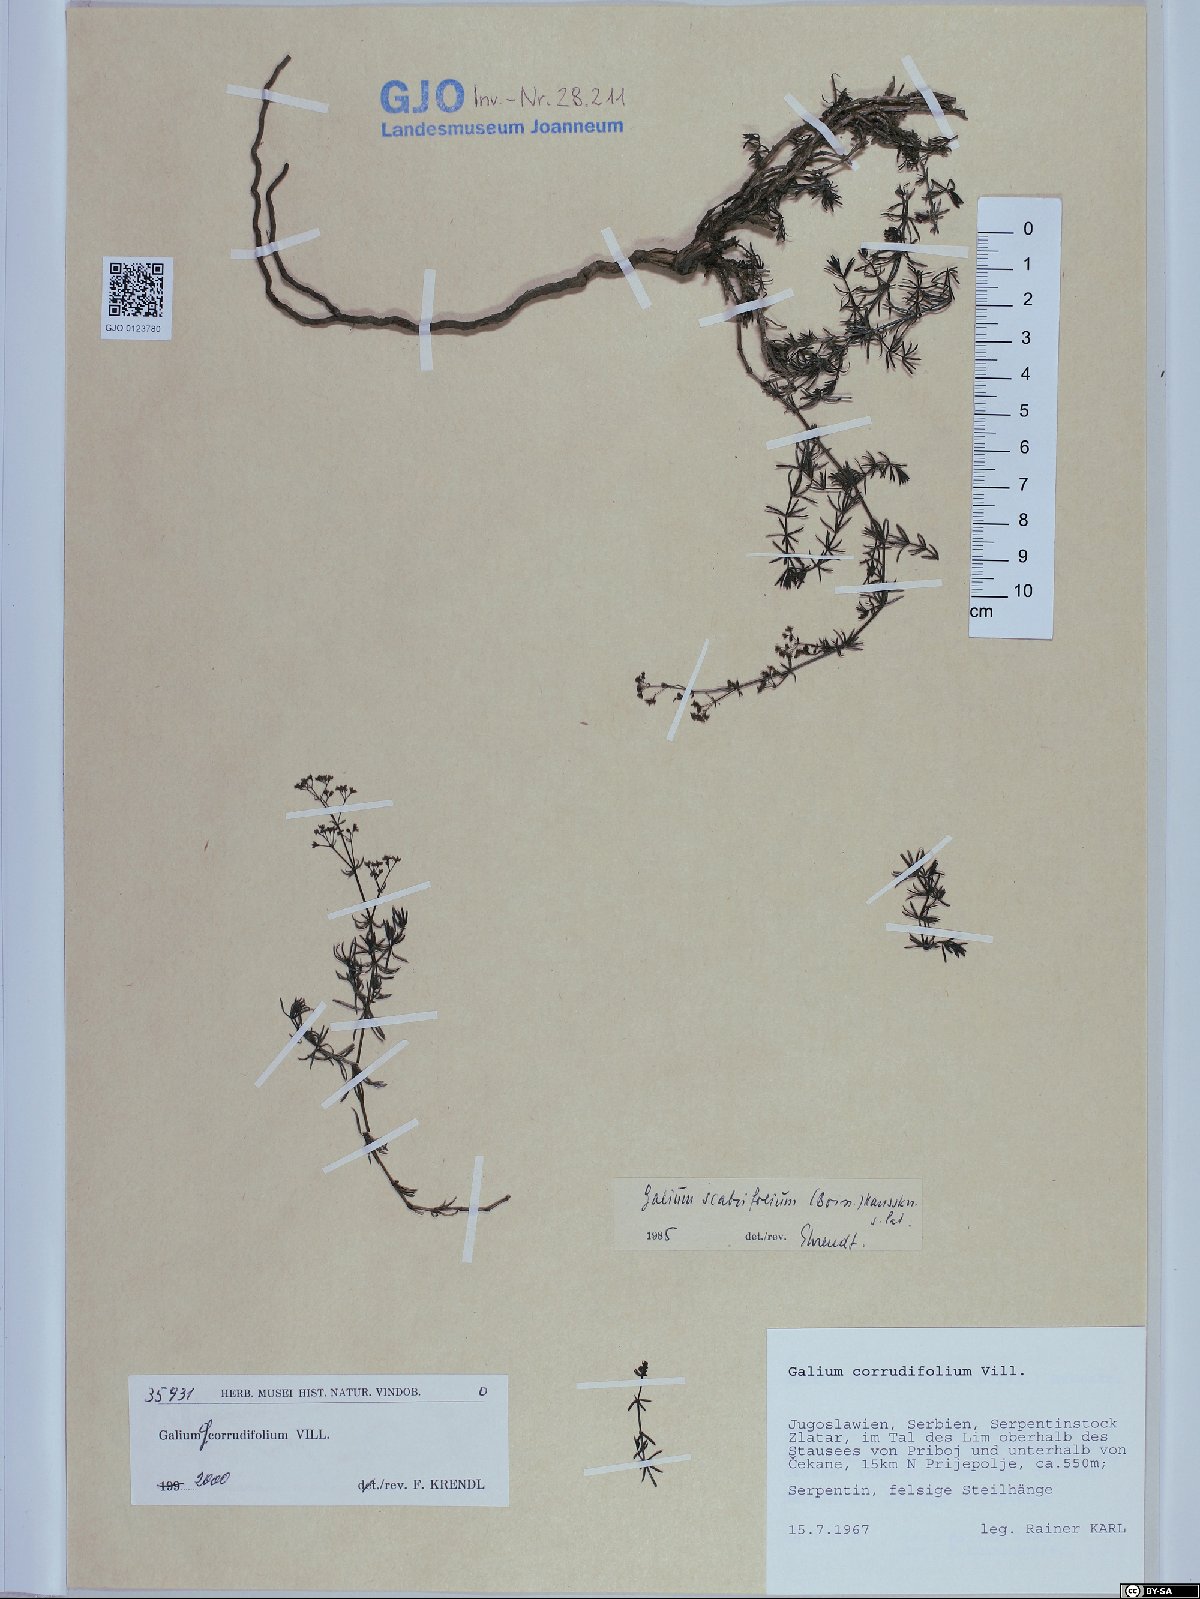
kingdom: Plantae
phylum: Tracheophyta
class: Magnoliopsida
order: Gentianales
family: Rubiaceae
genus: Galium
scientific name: Galium lucidum
